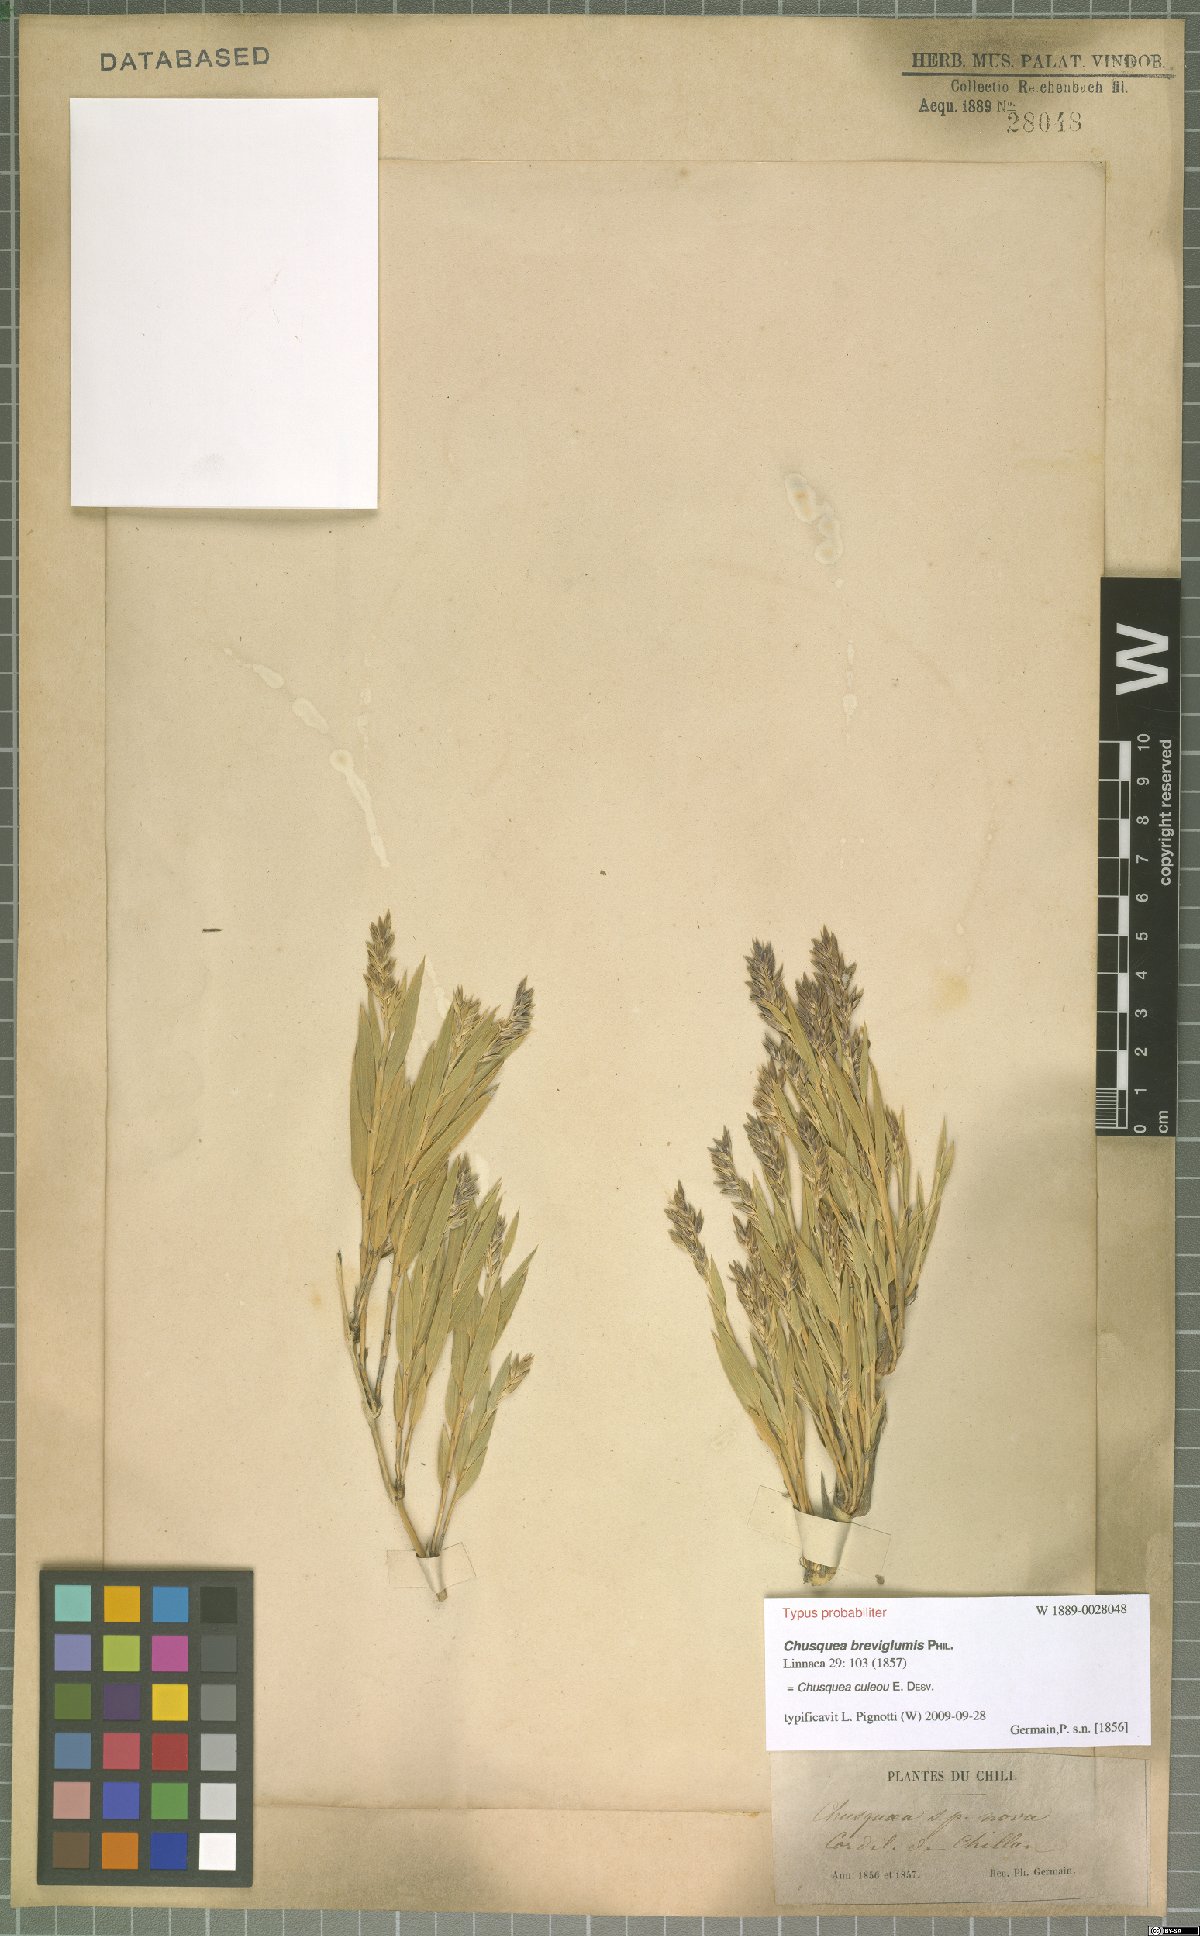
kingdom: Plantae
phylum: Tracheophyta
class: Liliopsida
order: Poales
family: Poaceae
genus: Chusquea
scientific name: Chusquea culeou
